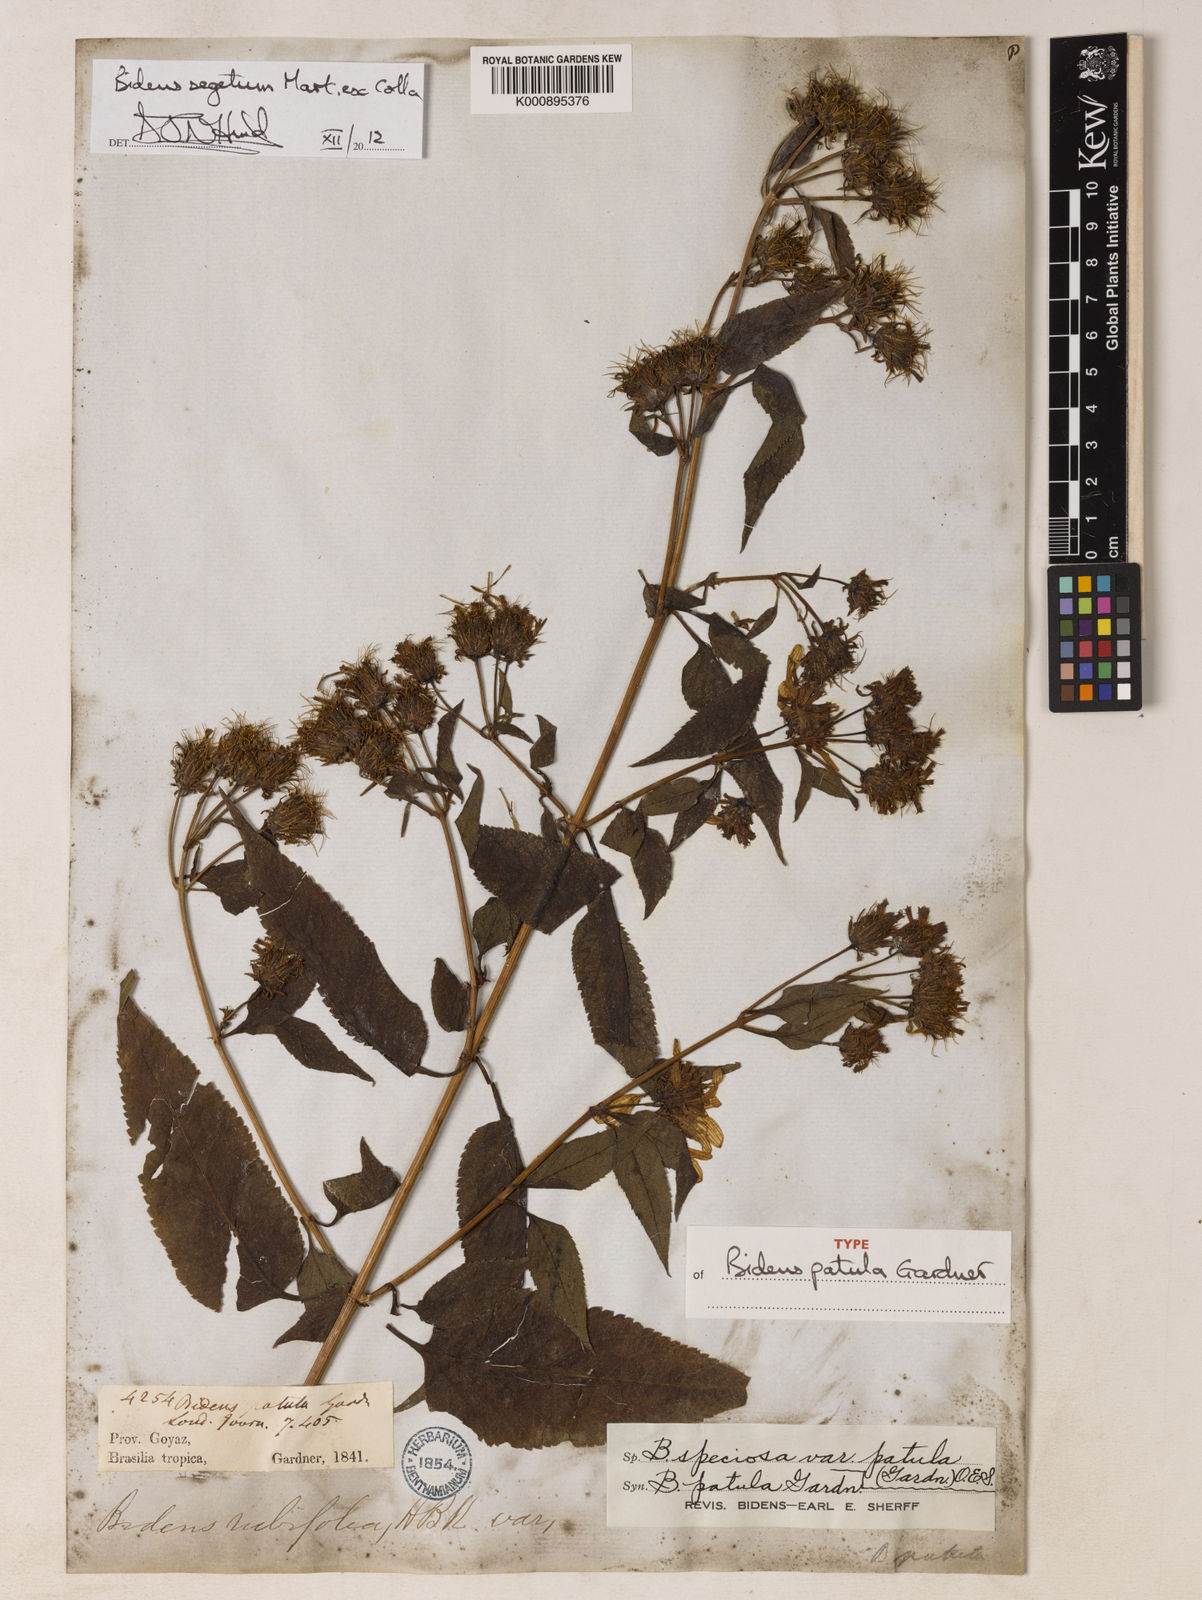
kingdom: Plantae
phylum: Tracheophyta
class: Magnoliopsida
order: Asterales
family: Asteraceae
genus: Bidens
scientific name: Bidens segetum
